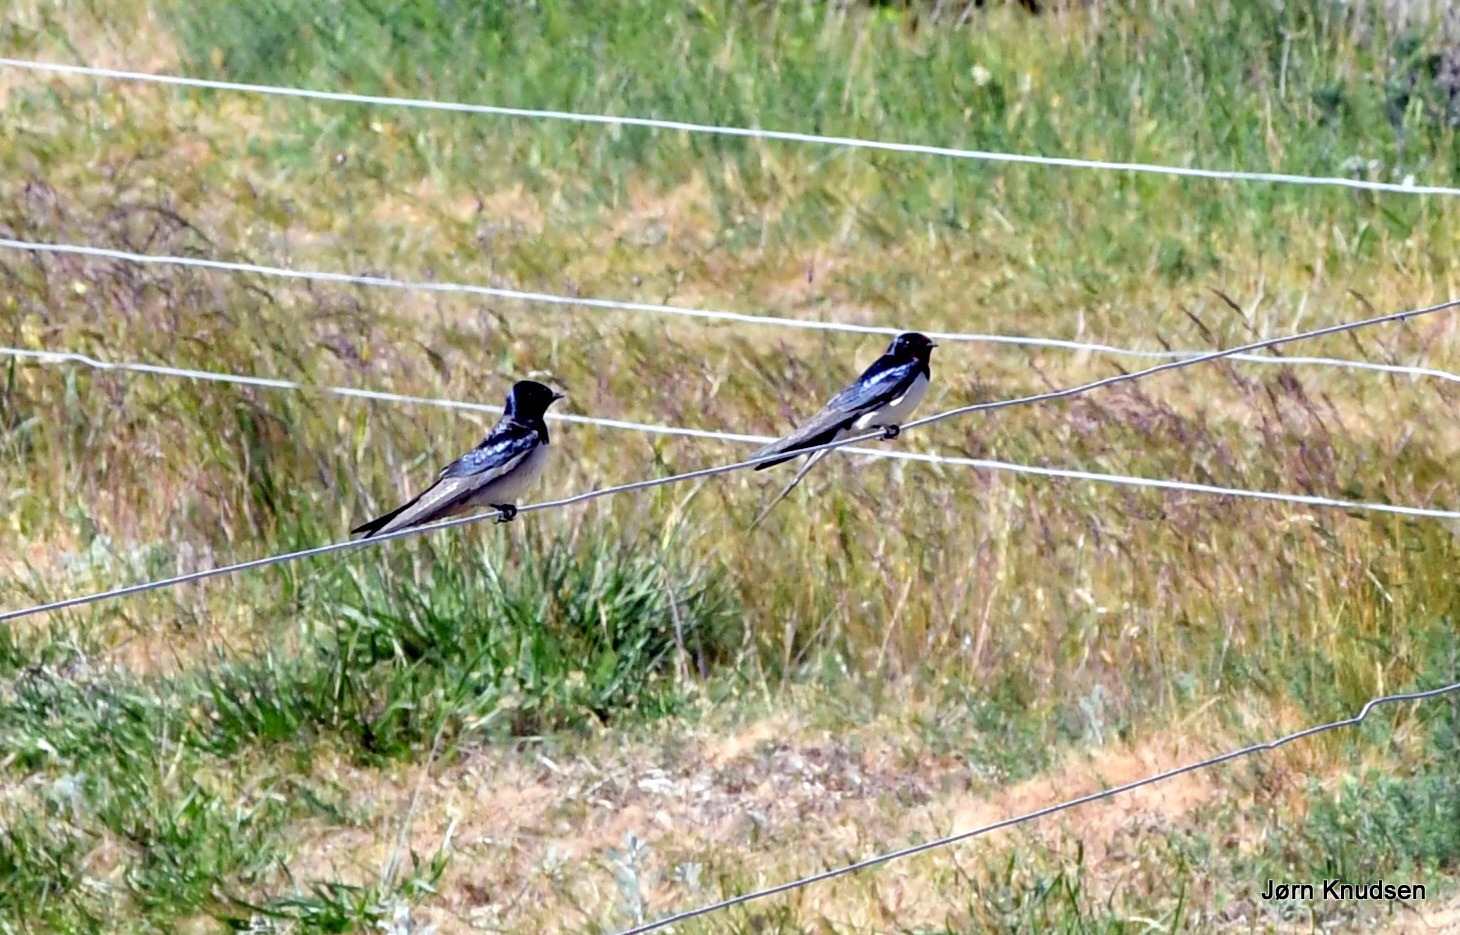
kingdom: Animalia
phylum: Chordata
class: Aves
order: Passeriformes
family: Hirundinidae
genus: Hirundo
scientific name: Hirundo rustica
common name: Landsvale
